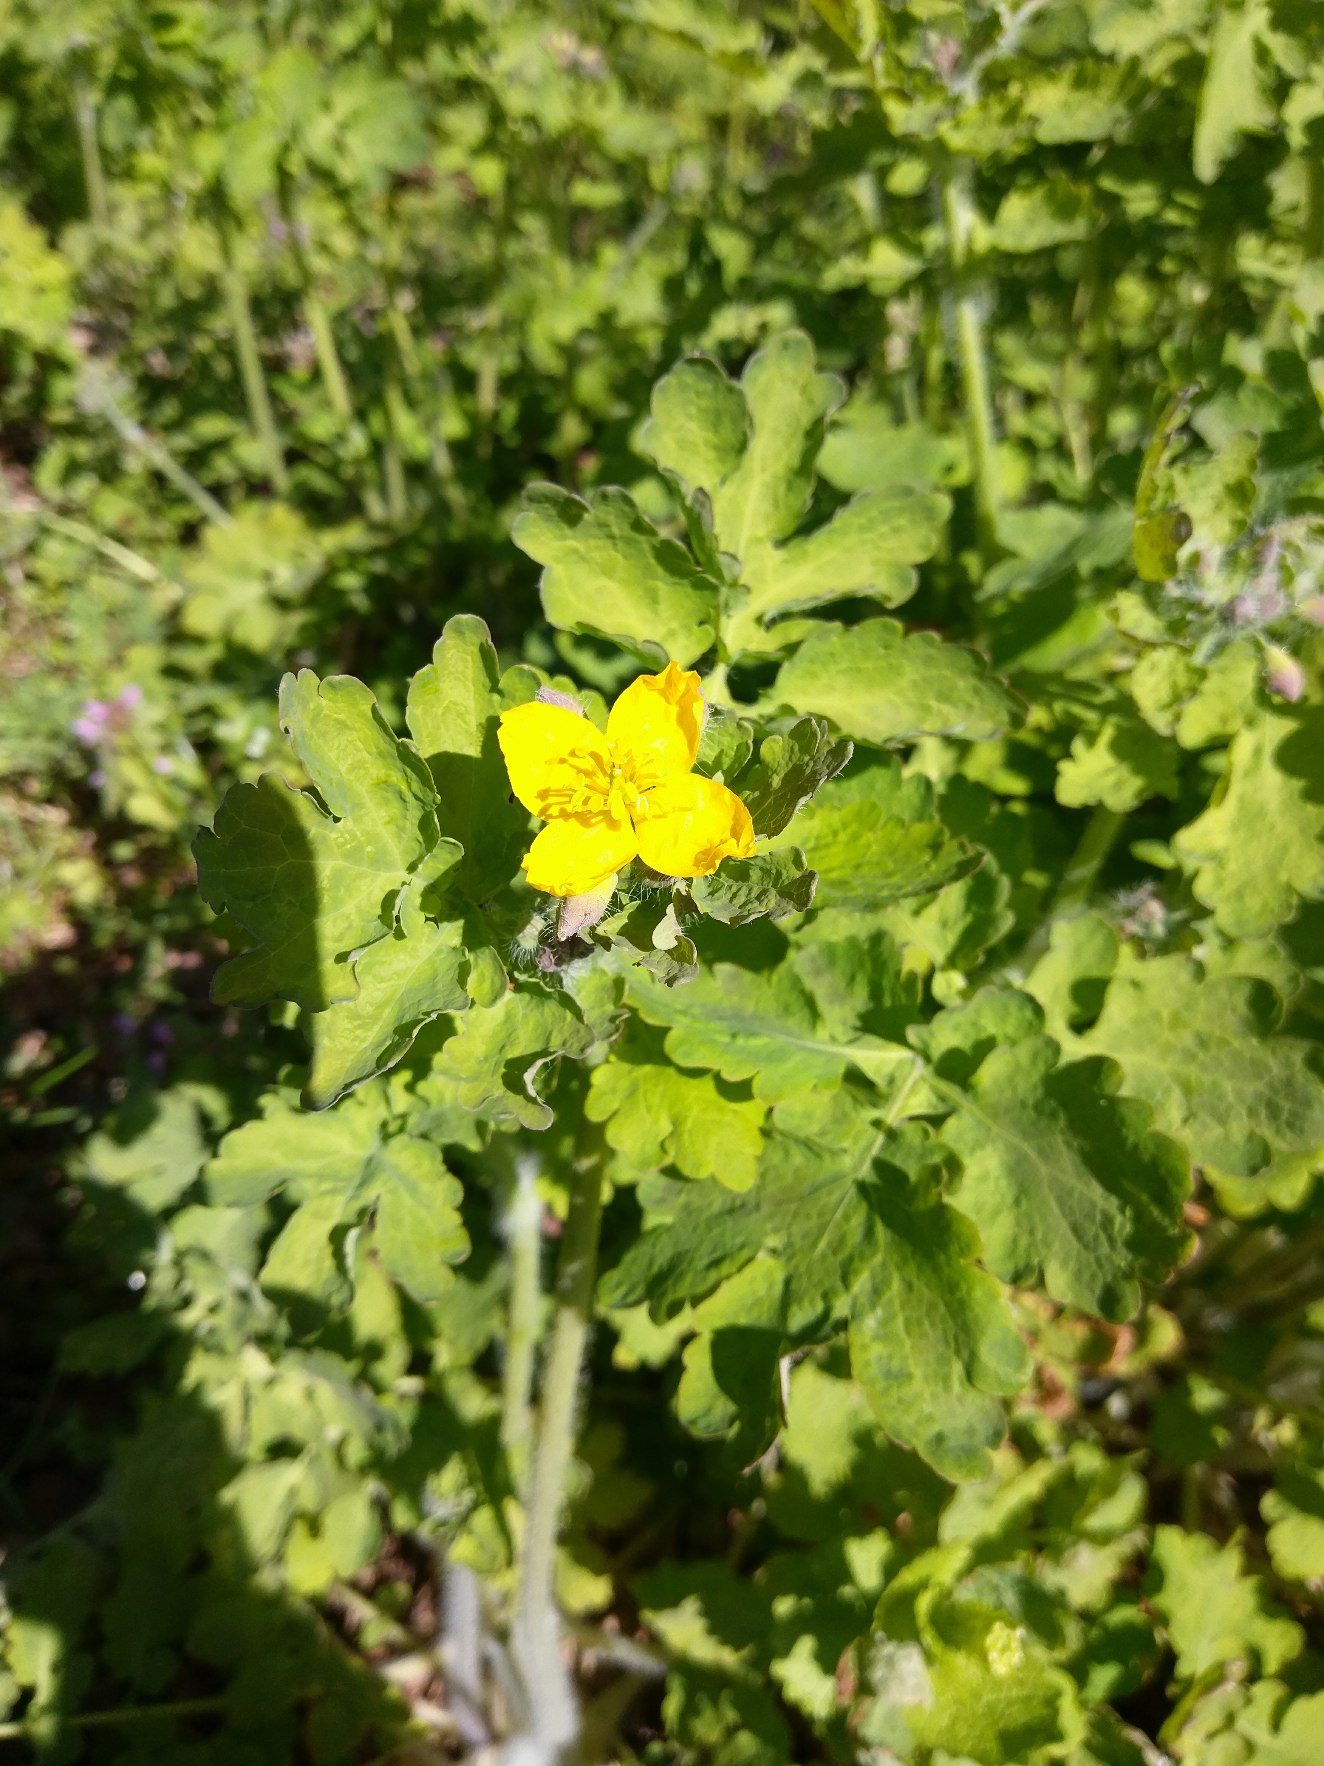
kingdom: Plantae
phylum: Tracheophyta
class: Magnoliopsida
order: Ranunculales
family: Papaveraceae
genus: Chelidonium
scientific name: Chelidonium majus
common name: Svaleurt
